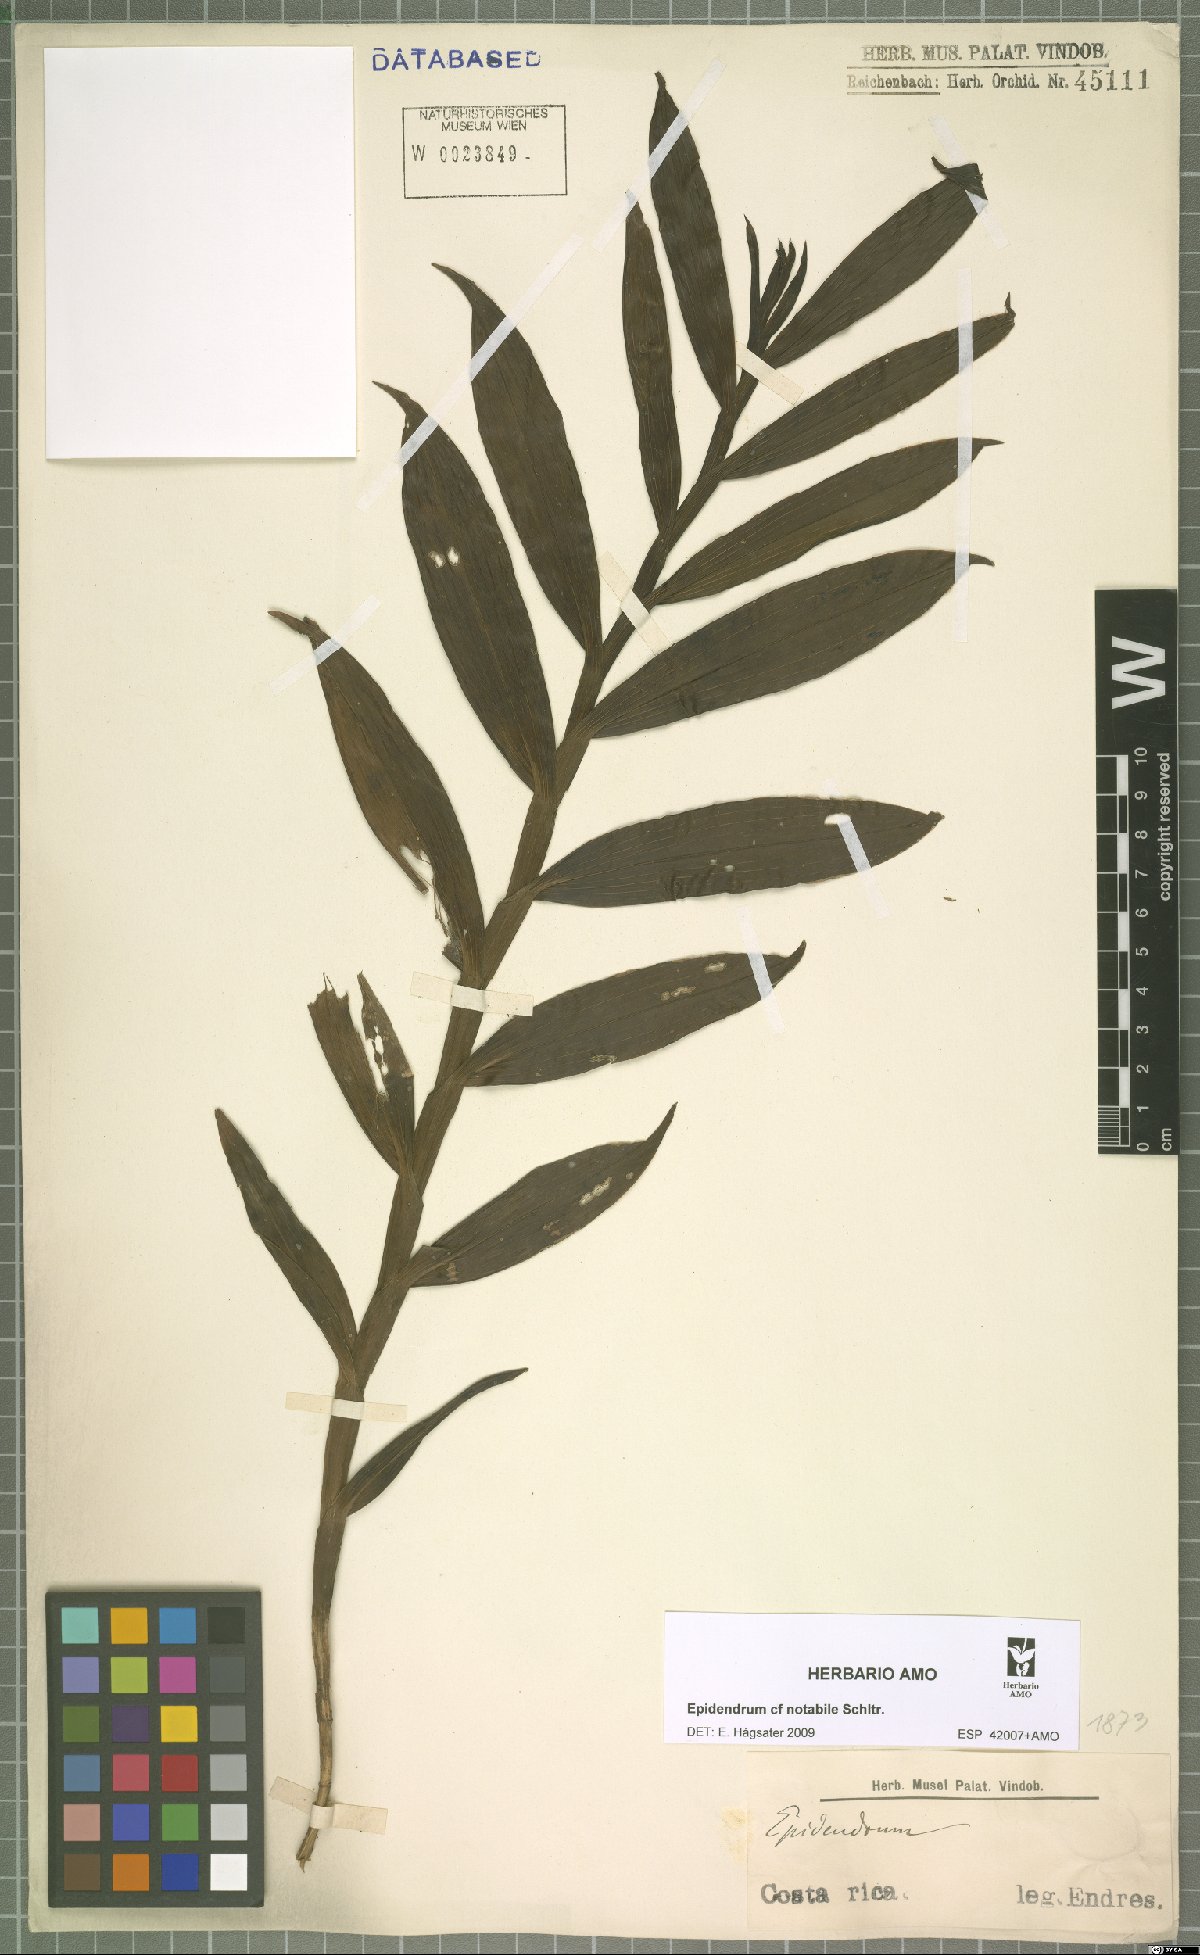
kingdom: Plantae
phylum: Tracheophyta
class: Liliopsida
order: Asparagales
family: Orchidaceae
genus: Epidendrum
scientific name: Epidendrum notabile
